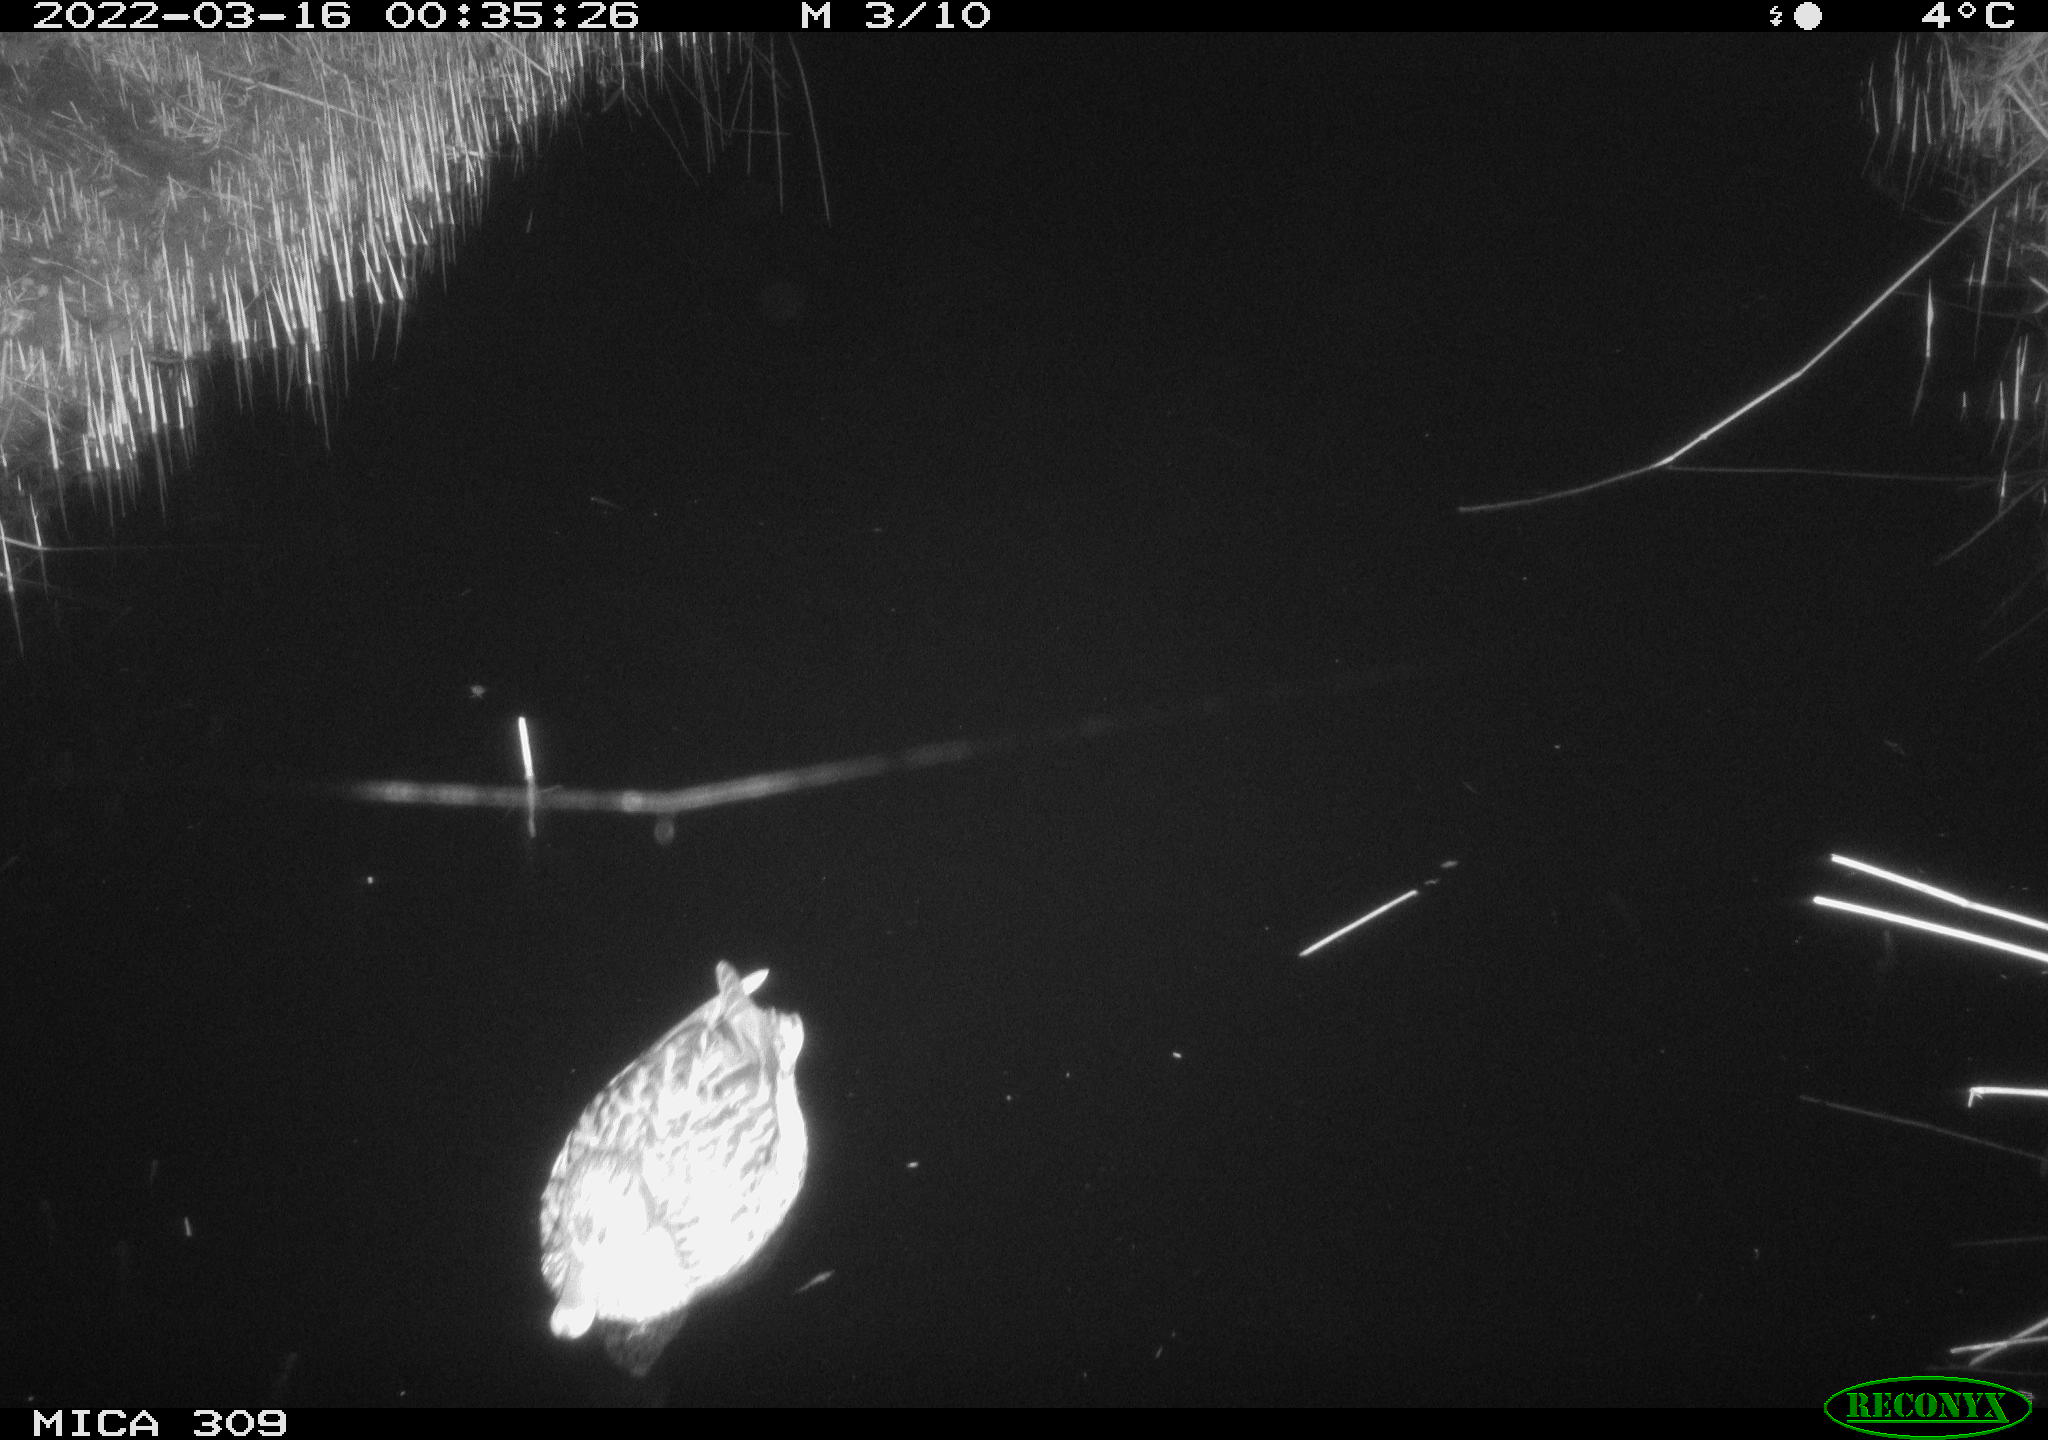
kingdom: Animalia
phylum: Chordata
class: Aves
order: Anseriformes
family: Anatidae
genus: Anas
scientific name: Anas platyrhynchos
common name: Mallard
